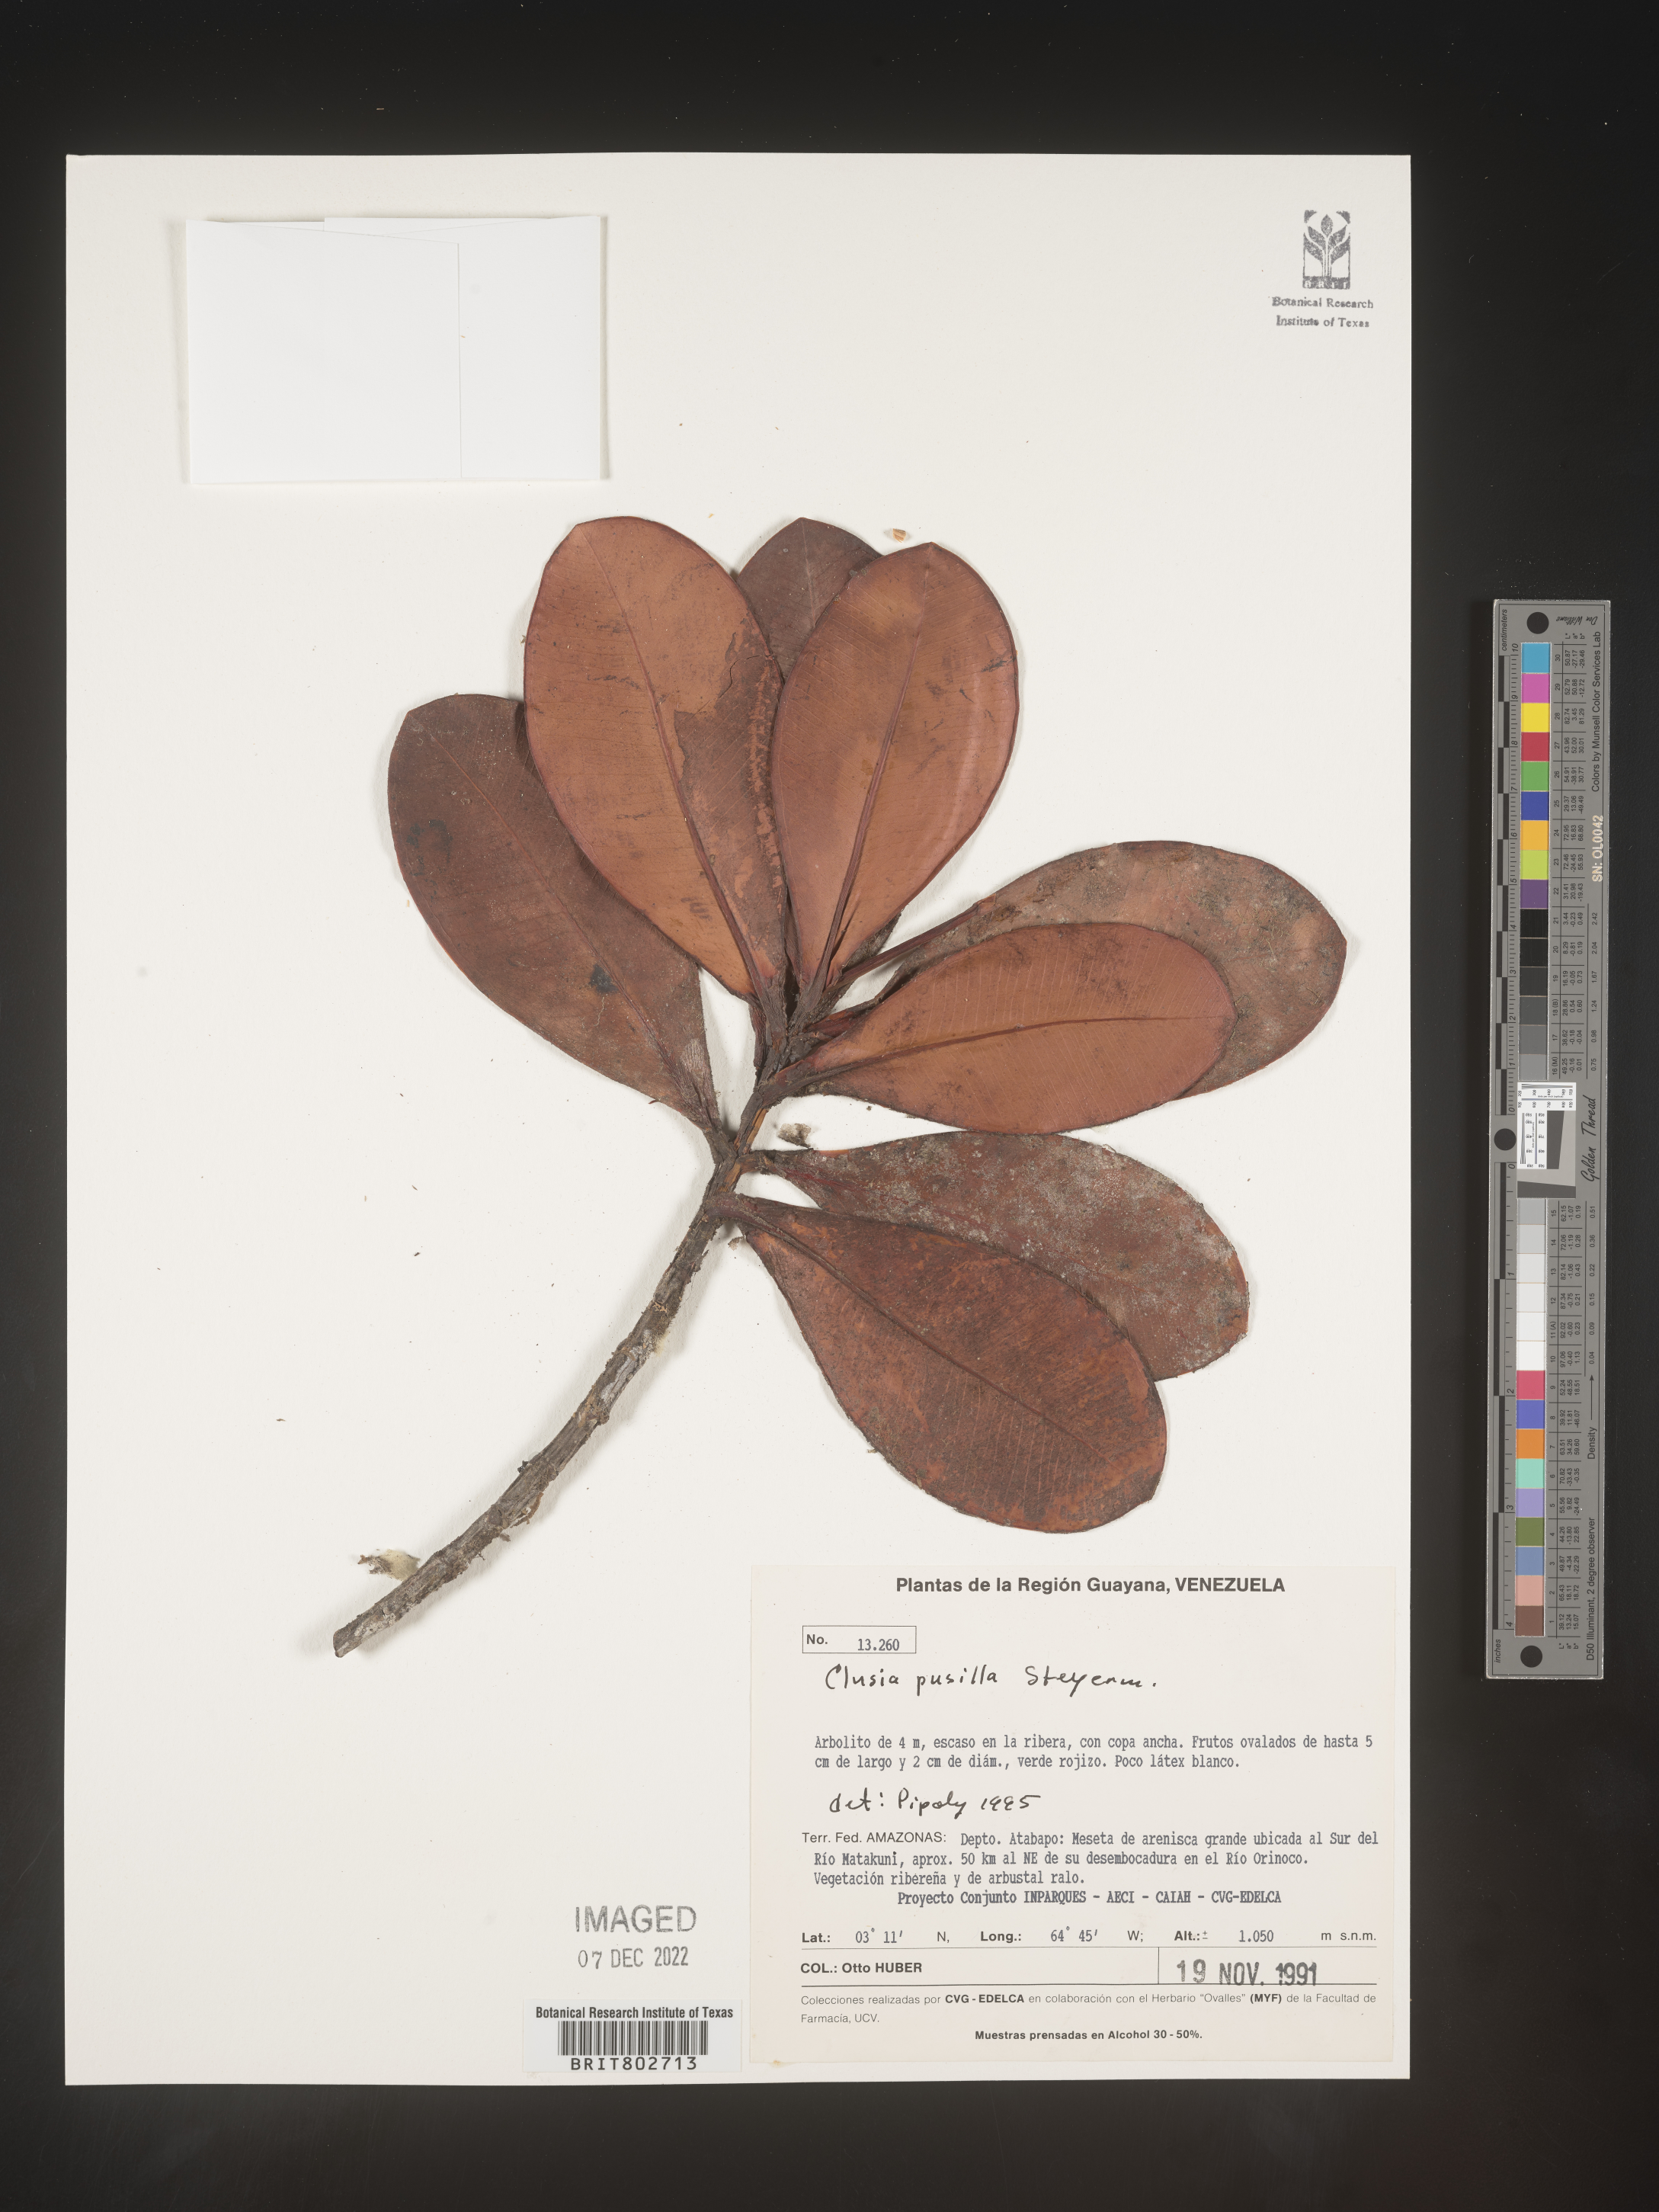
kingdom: Plantae
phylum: Tracheophyta
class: Magnoliopsida
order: Malpighiales
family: Clusiaceae
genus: Clusia
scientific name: Clusia pusilla
